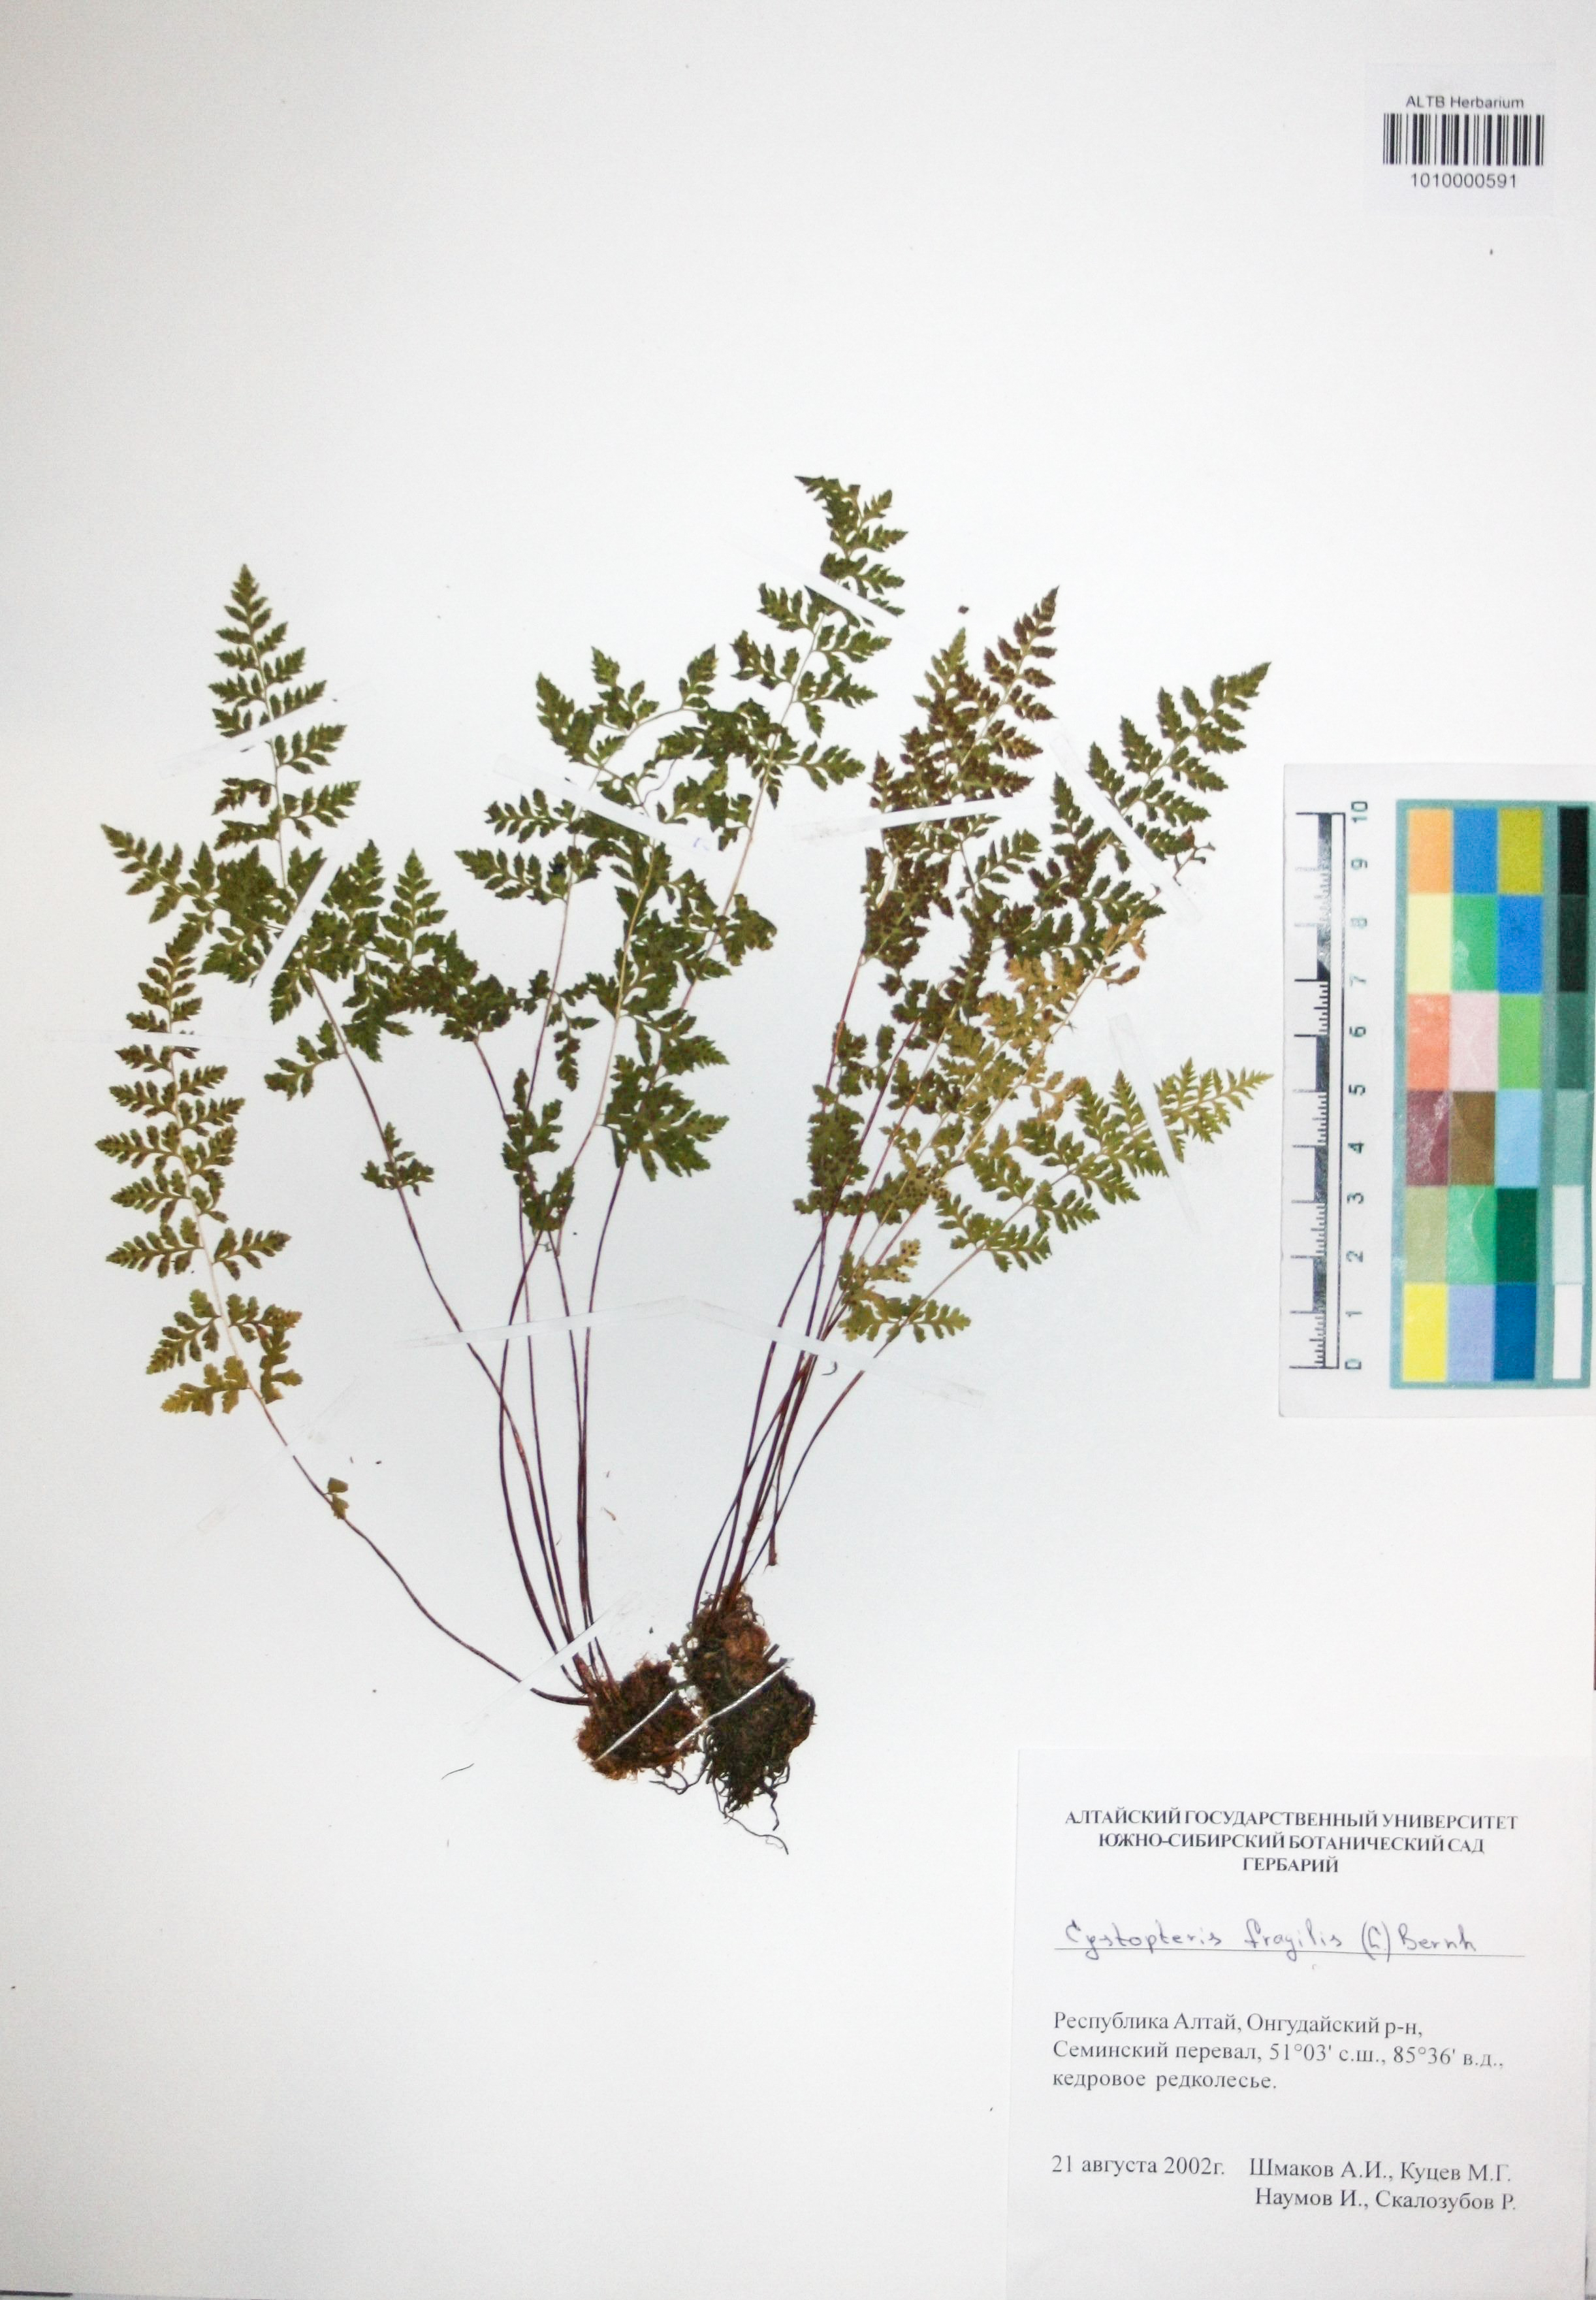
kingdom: Plantae
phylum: Tracheophyta
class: Polypodiopsida
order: Polypodiales
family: Cystopteridaceae
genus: Cystopteris
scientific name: Cystopteris fragilis
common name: Brittle bladder fern
